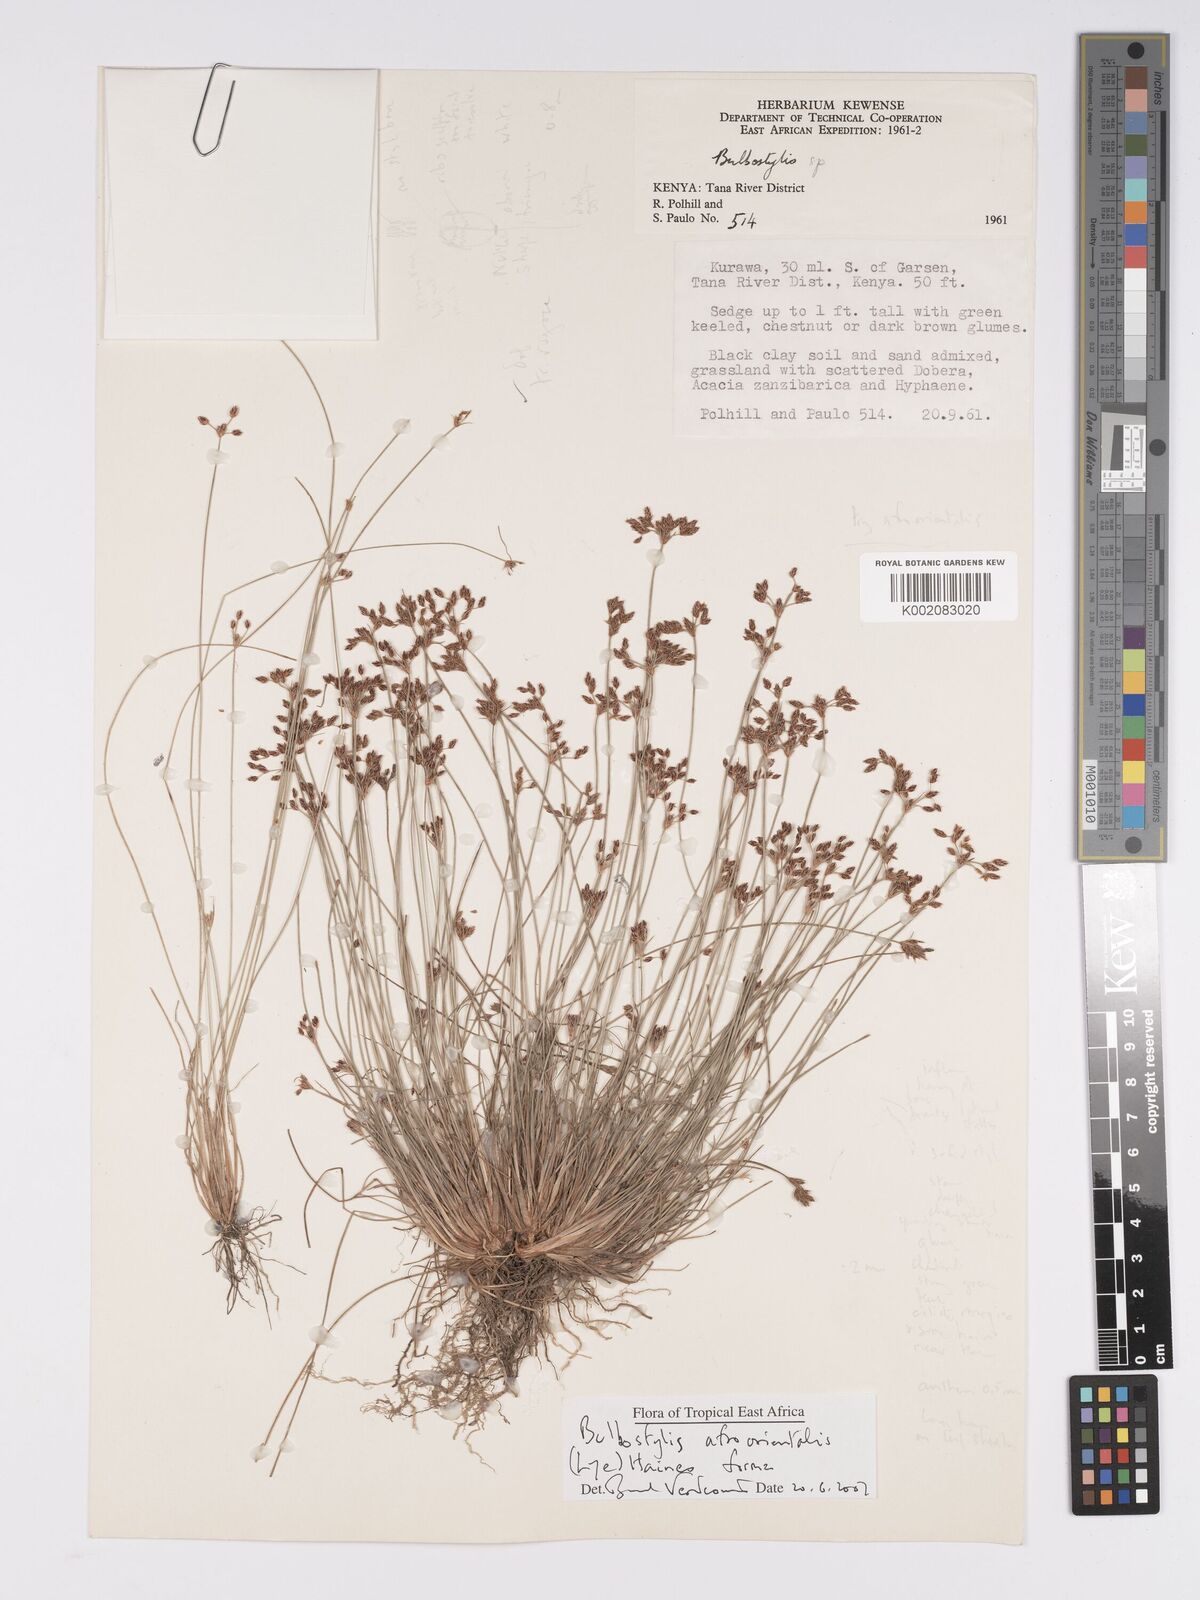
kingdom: Plantae
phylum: Tracheophyta
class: Liliopsida
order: Poales
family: Cyperaceae
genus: Bulbostylis
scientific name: Bulbostylis afroorientalis
